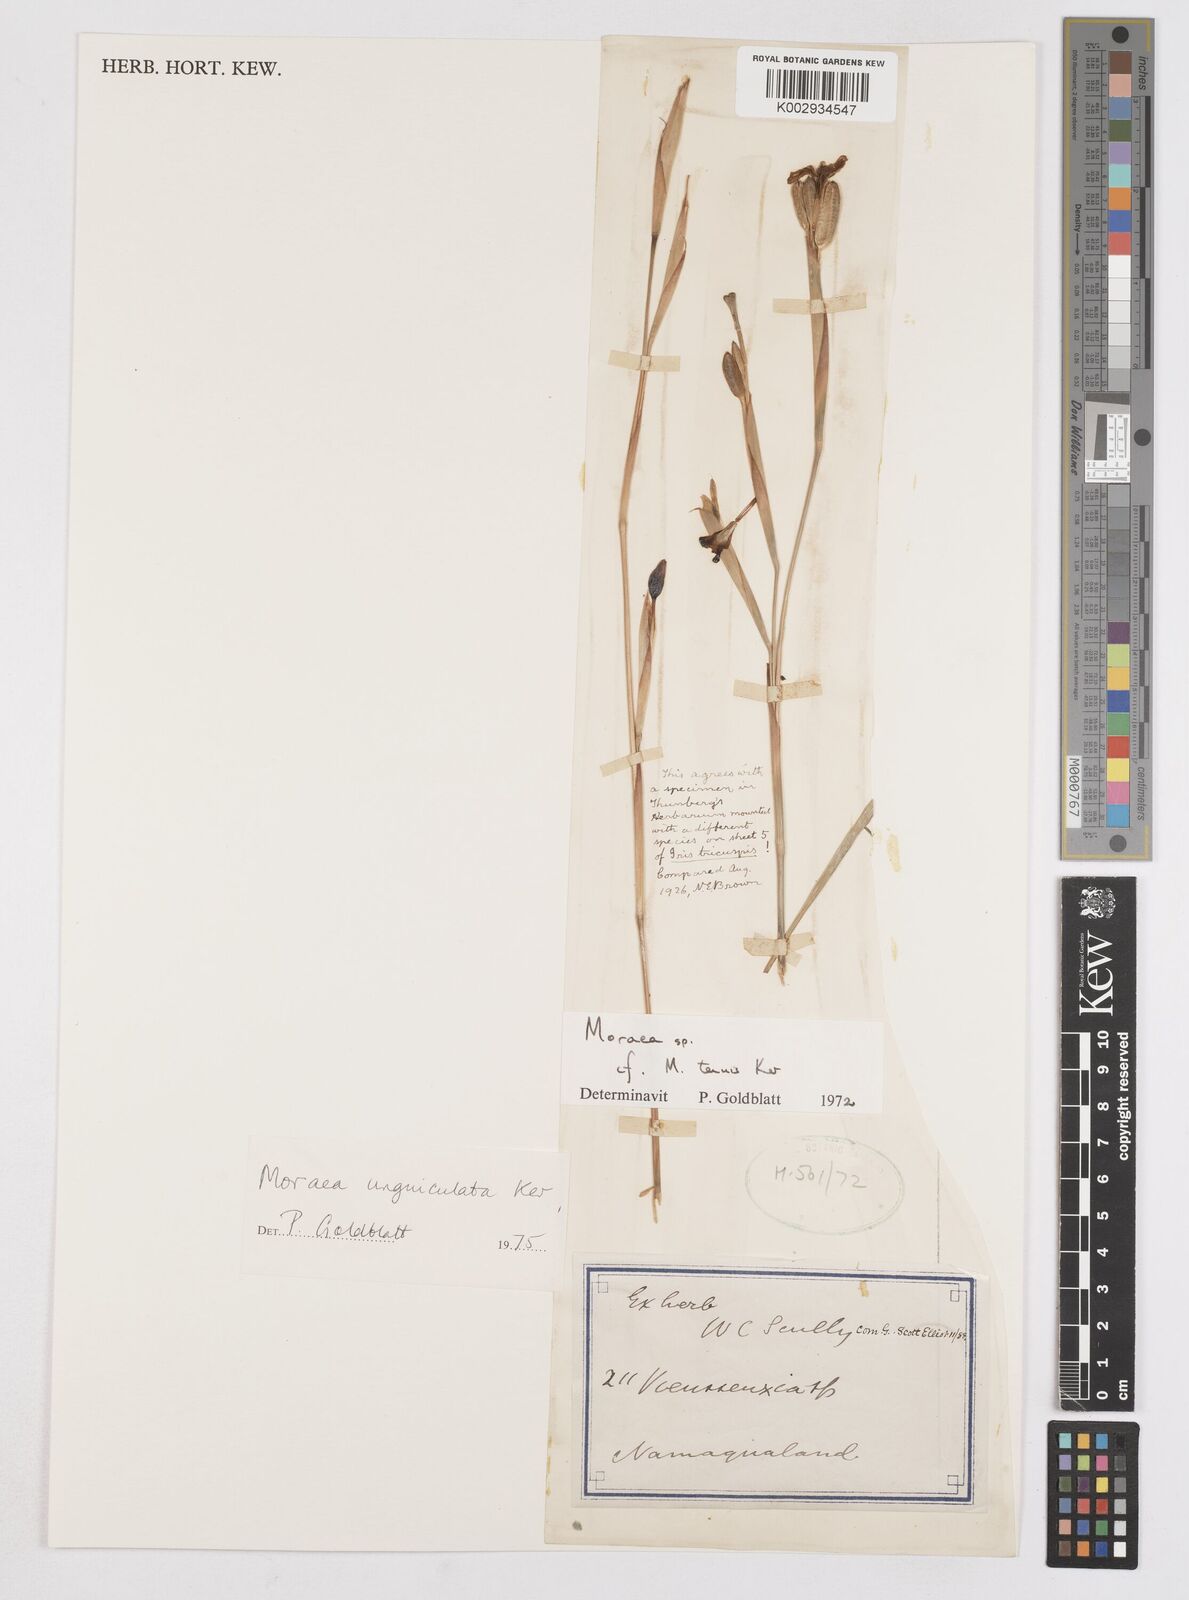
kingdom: Plantae
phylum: Tracheophyta
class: Liliopsida
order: Asparagales
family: Iridaceae
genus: Moraea
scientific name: Moraea unguiculata
